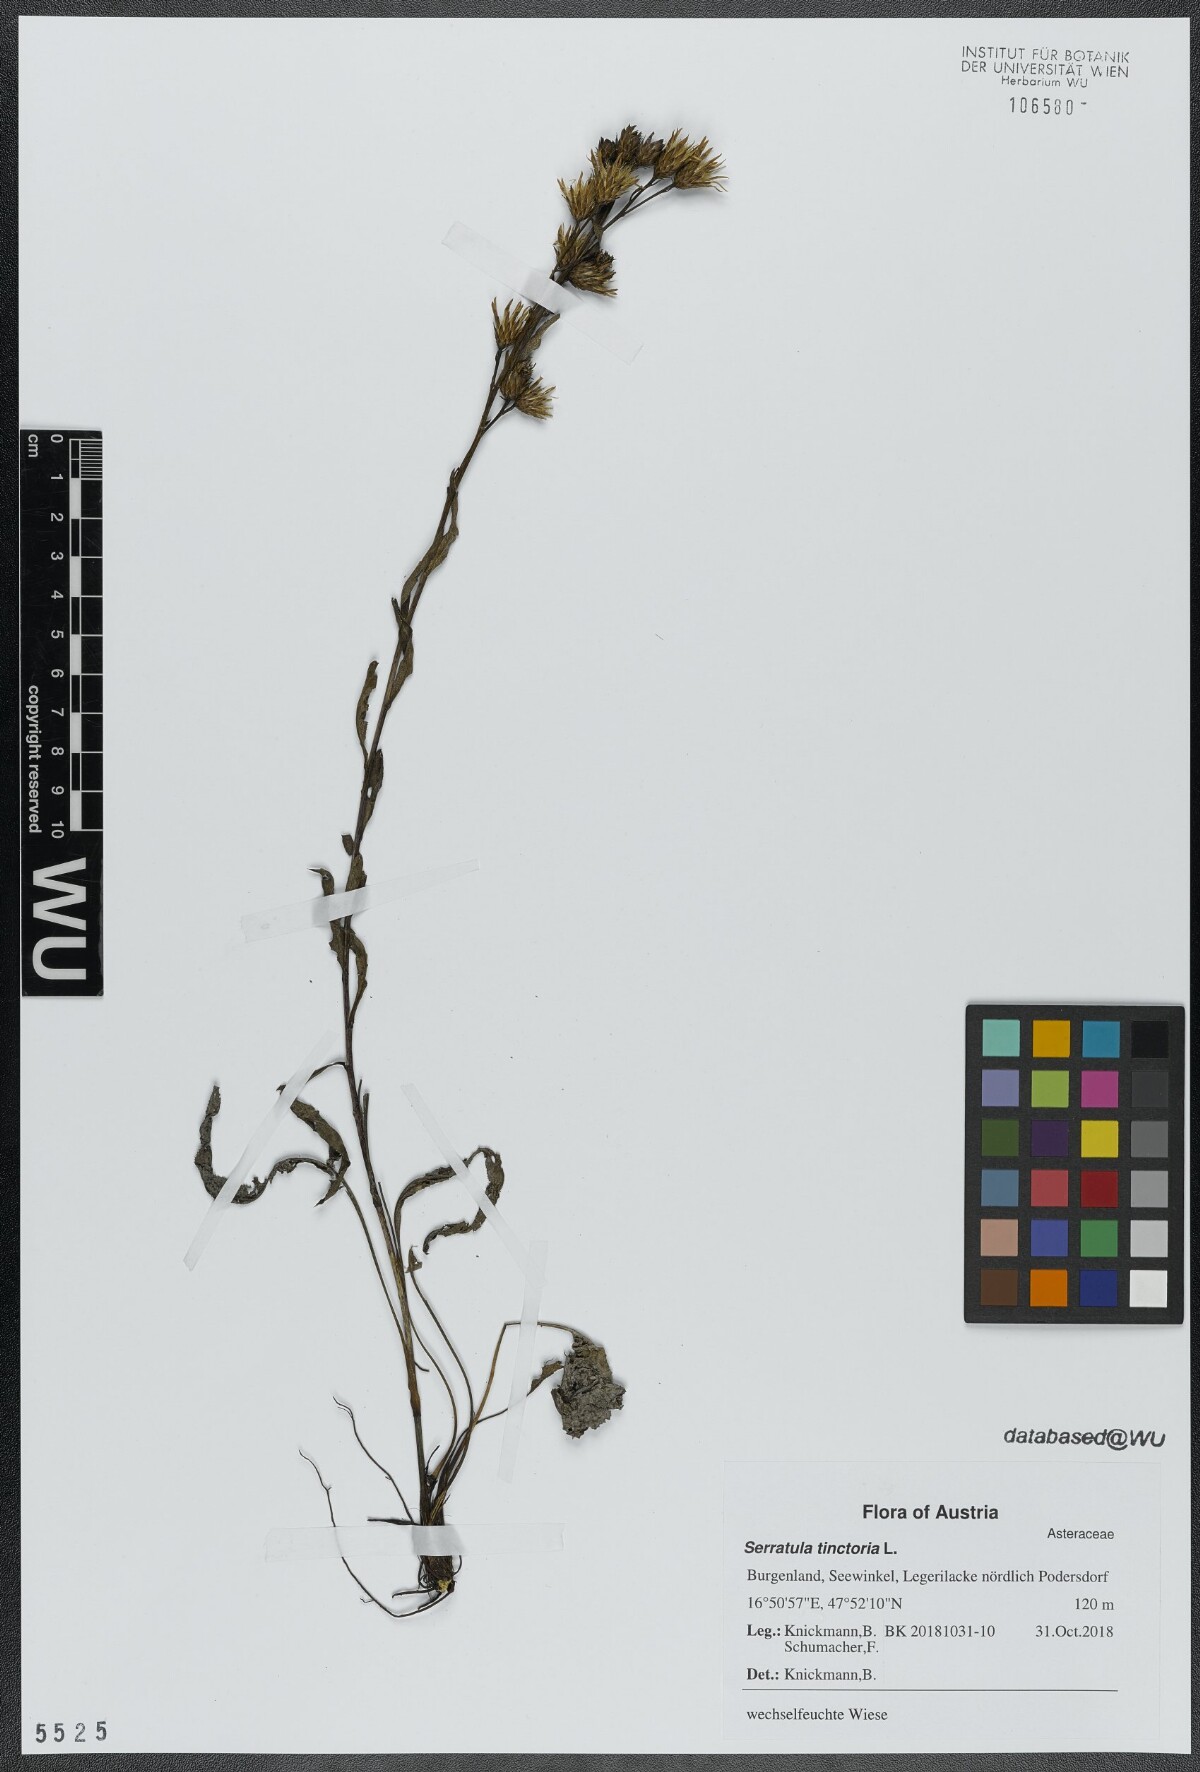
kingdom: Plantae
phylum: Tracheophyta
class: Magnoliopsida
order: Asterales
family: Asteraceae
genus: Serratula
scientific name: Serratula tinctoria
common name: Saw-wort
